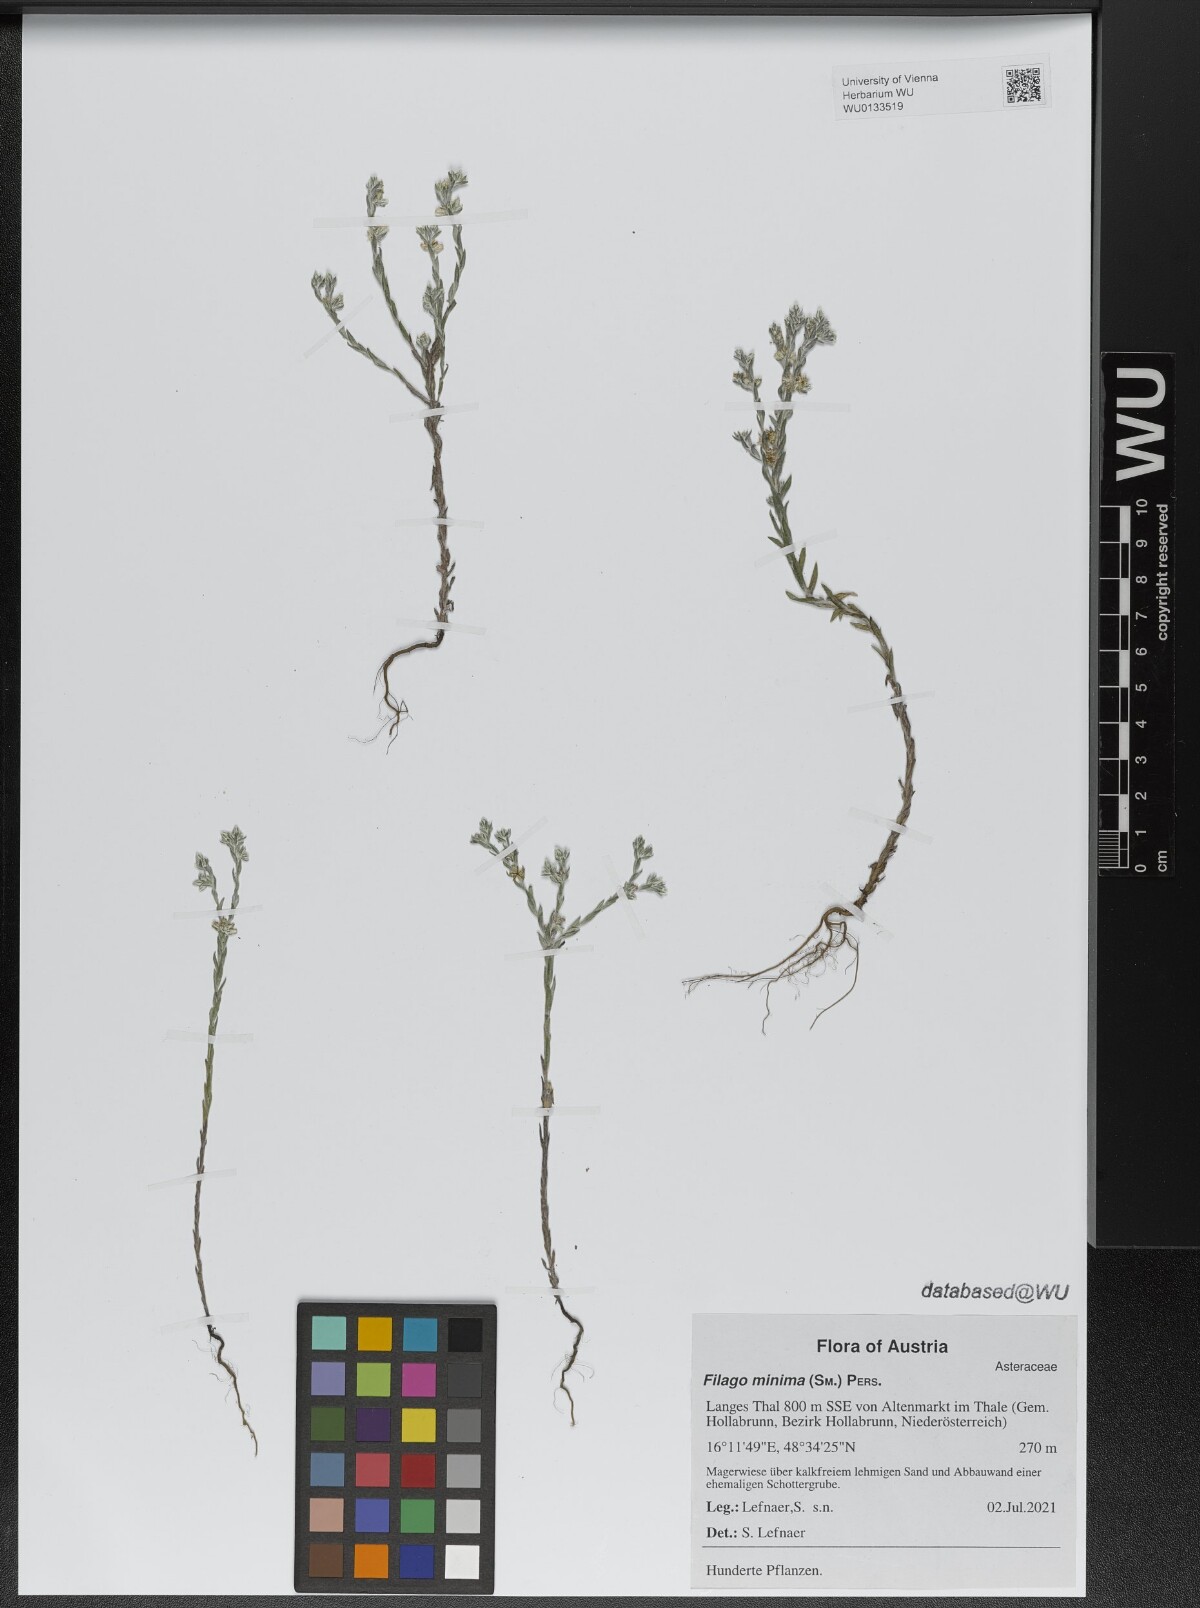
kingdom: Plantae
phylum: Tracheophyta
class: Magnoliopsida
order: Asterales
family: Asteraceae
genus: Logfia
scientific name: Logfia minima
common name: Little cottonrose
